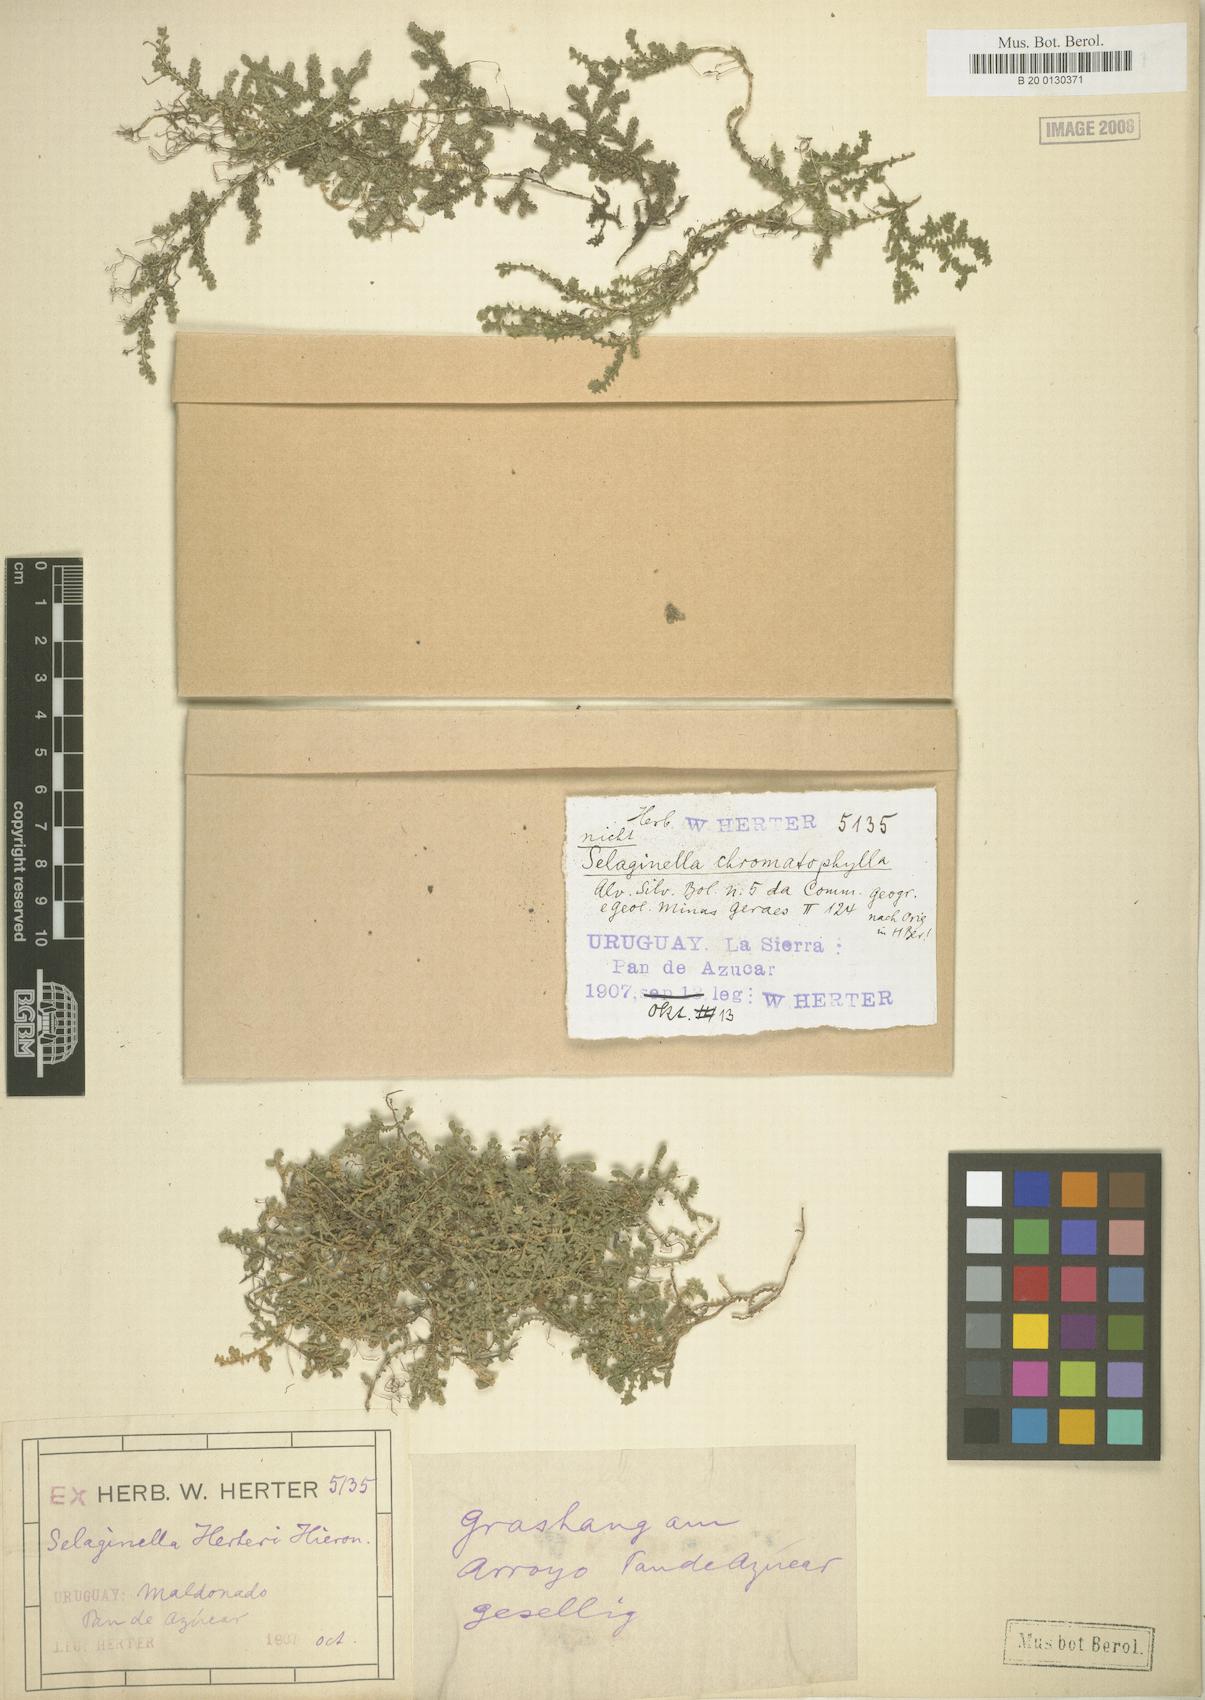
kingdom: Plantae
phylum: Tracheophyta
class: Lycopodiopsida
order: Selaginellales
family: Selaginellaceae
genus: Selaginella
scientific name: Selaginella marginata
